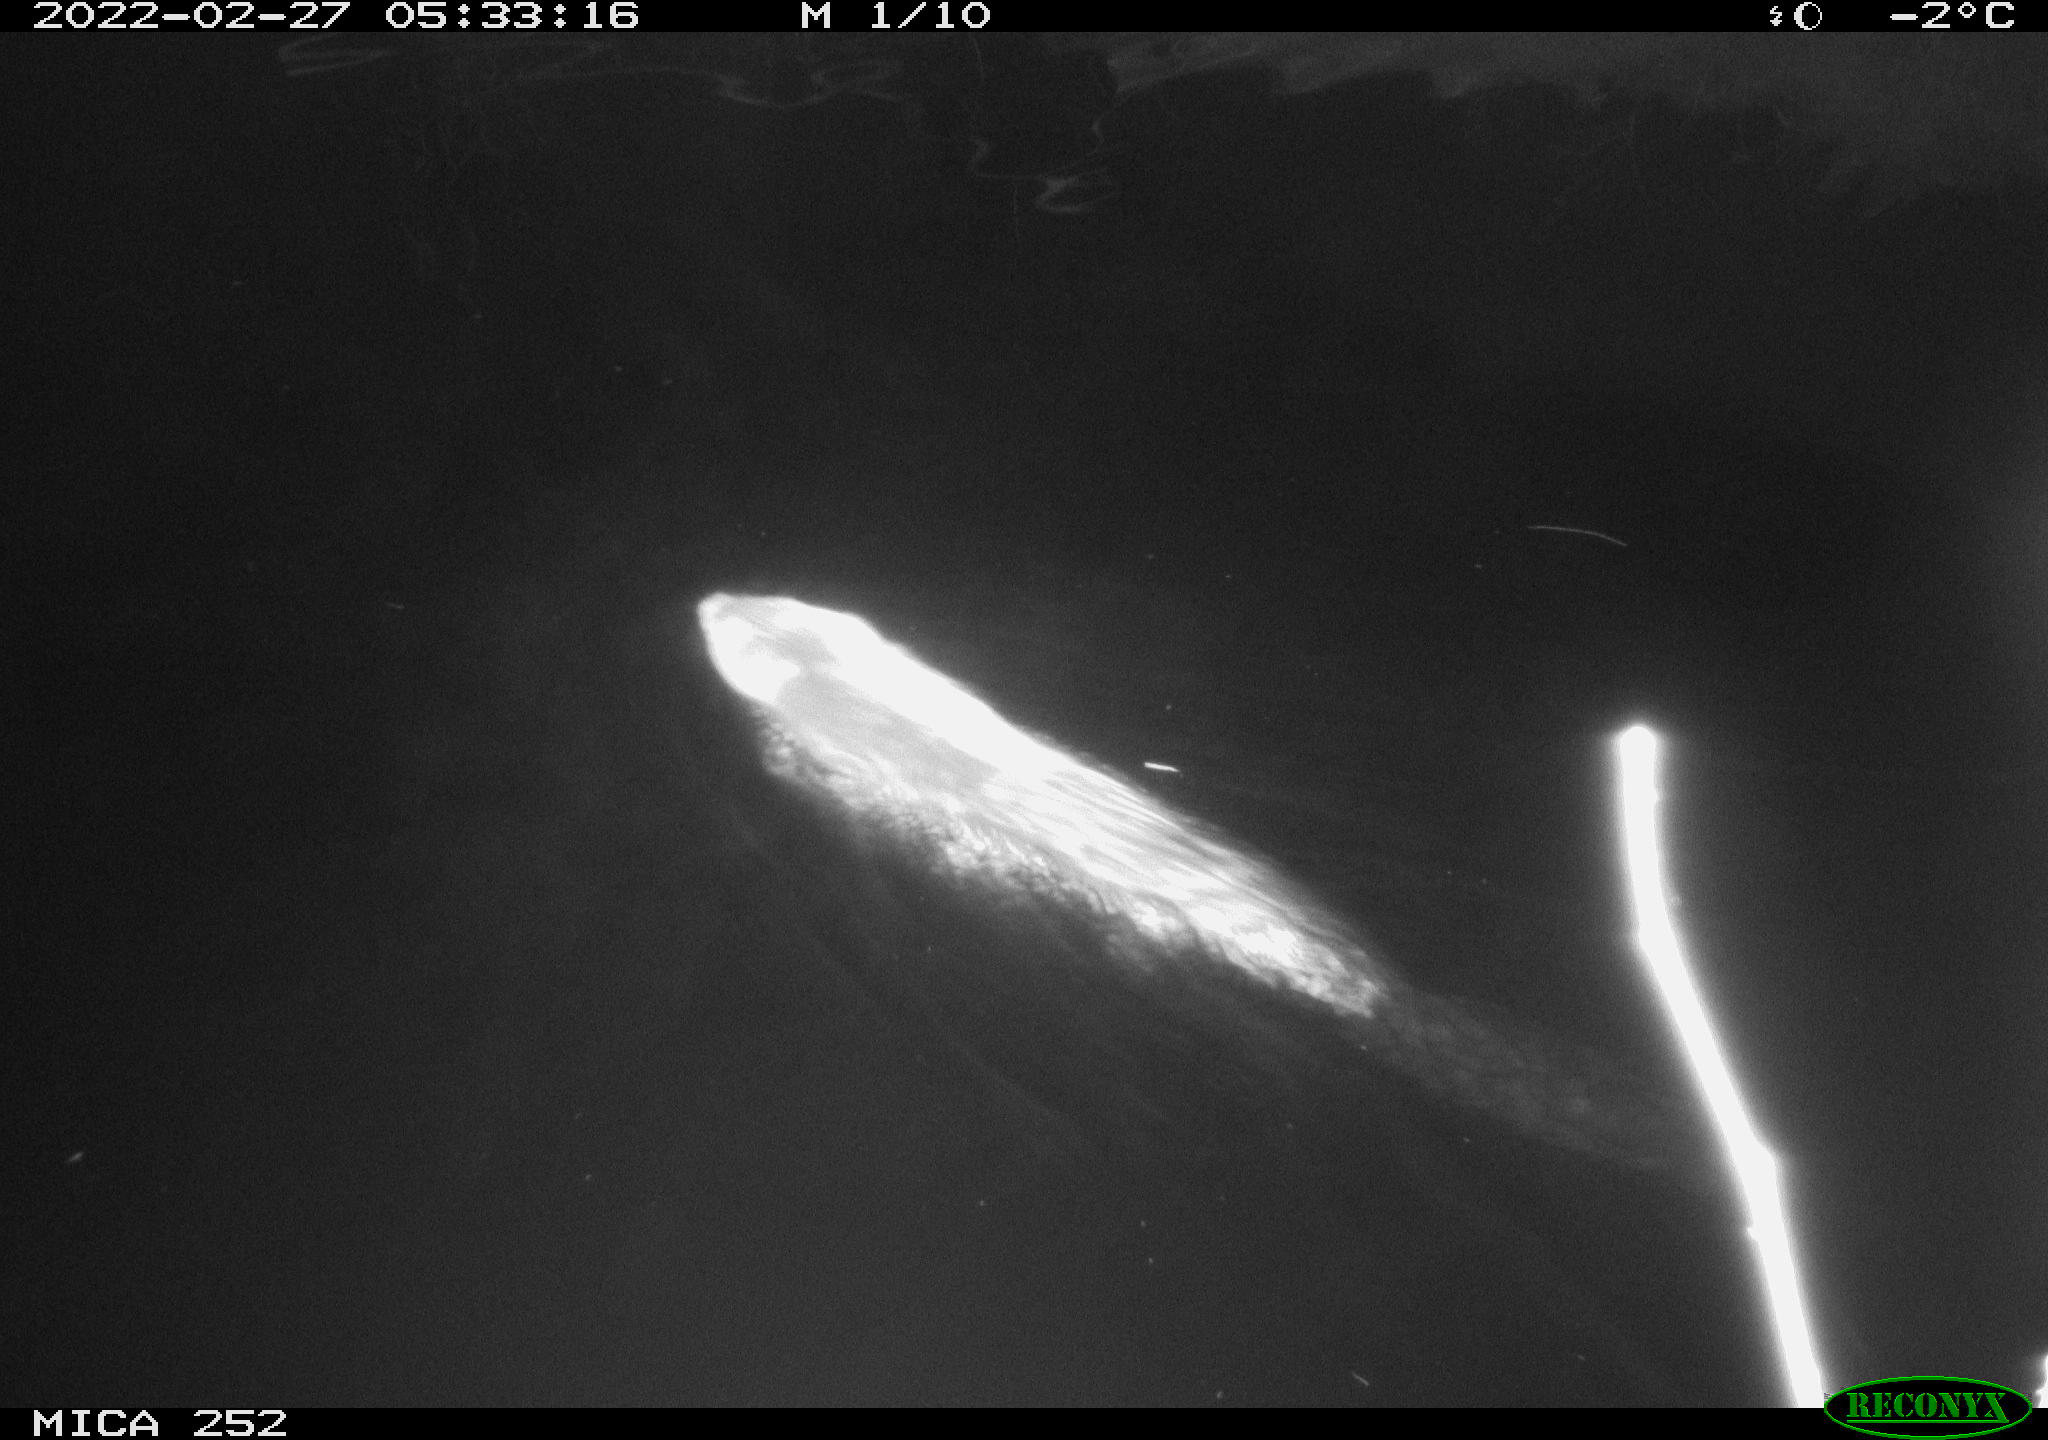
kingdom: Animalia
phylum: Chordata
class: Mammalia
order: Rodentia
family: Castoridae
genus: Castor
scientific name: Castor fiber
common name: Eurasian beaver
